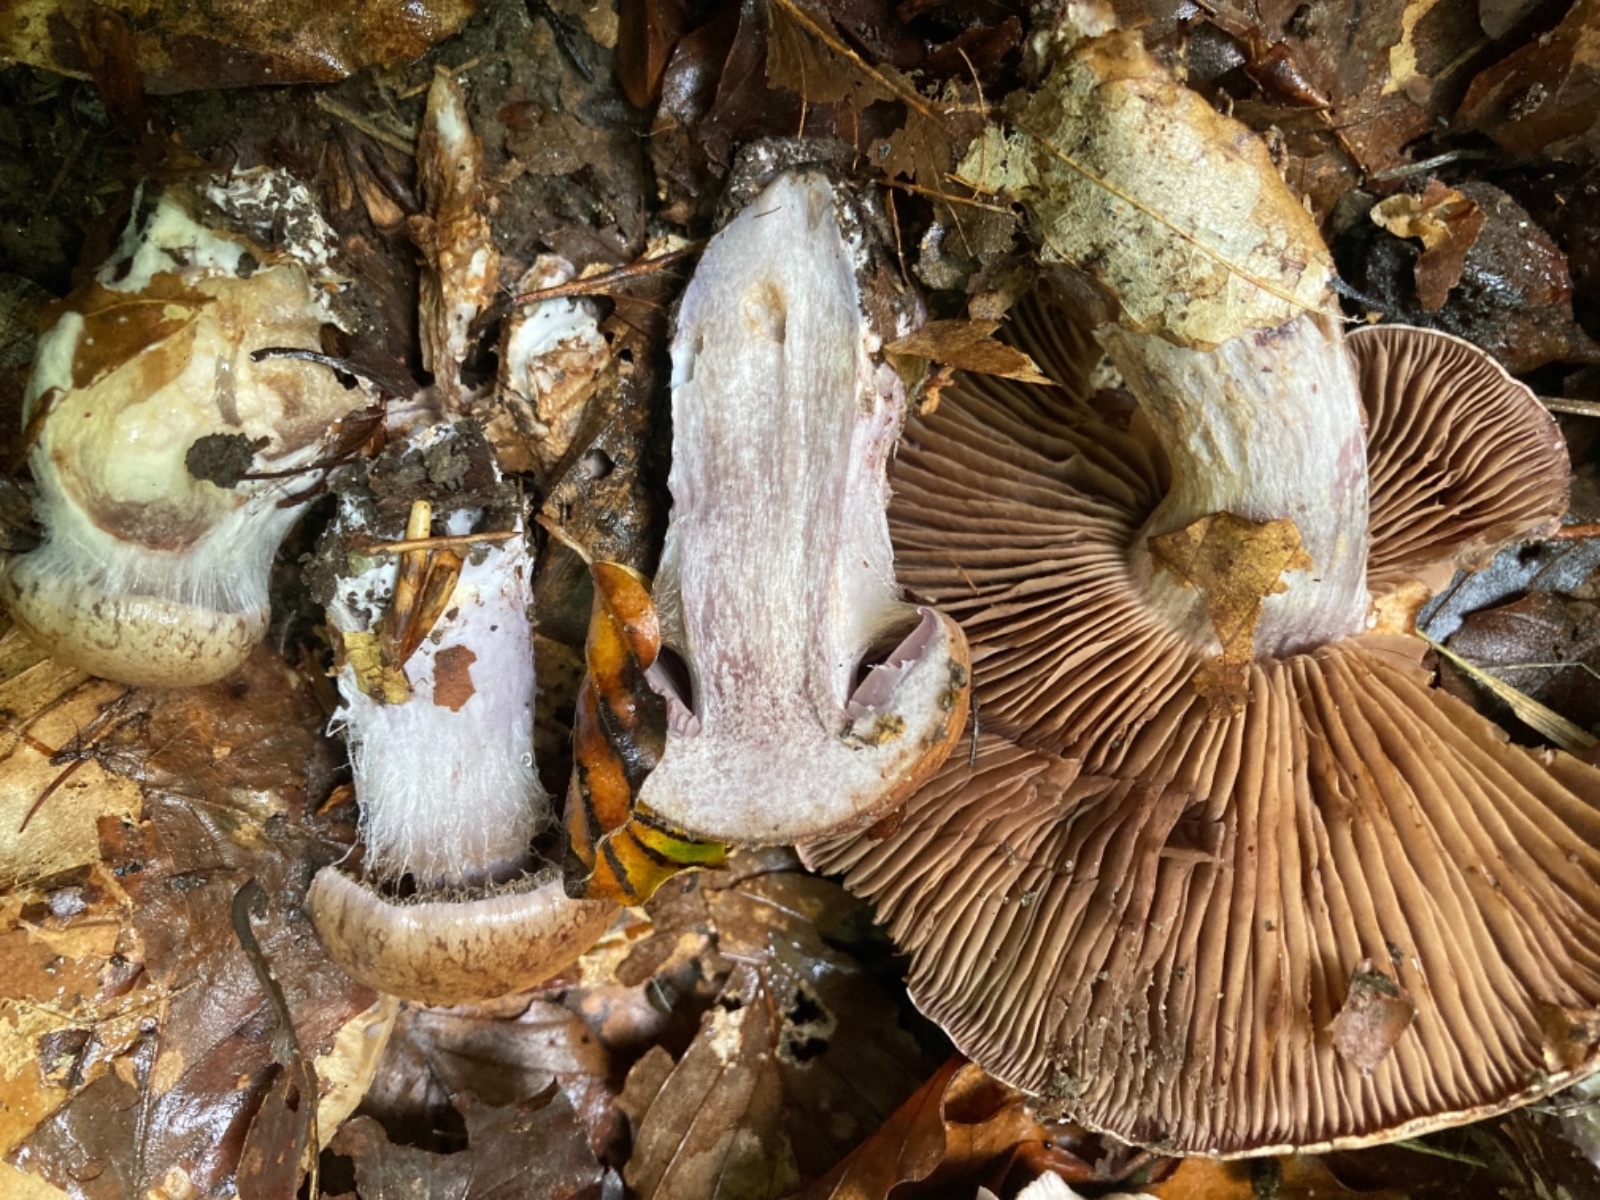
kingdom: Fungi
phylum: Basidiomycota
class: Agaricomycetes
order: Agaricales
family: Cortinariaceae
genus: Cortinarius
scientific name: Cortinarius
